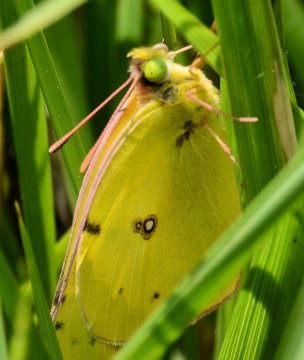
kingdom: Animalia
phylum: Arthropoda
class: Insecta
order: Lepidoptera
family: Pieridae
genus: Colias
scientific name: Colias philodice
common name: Clouded Sulphur
